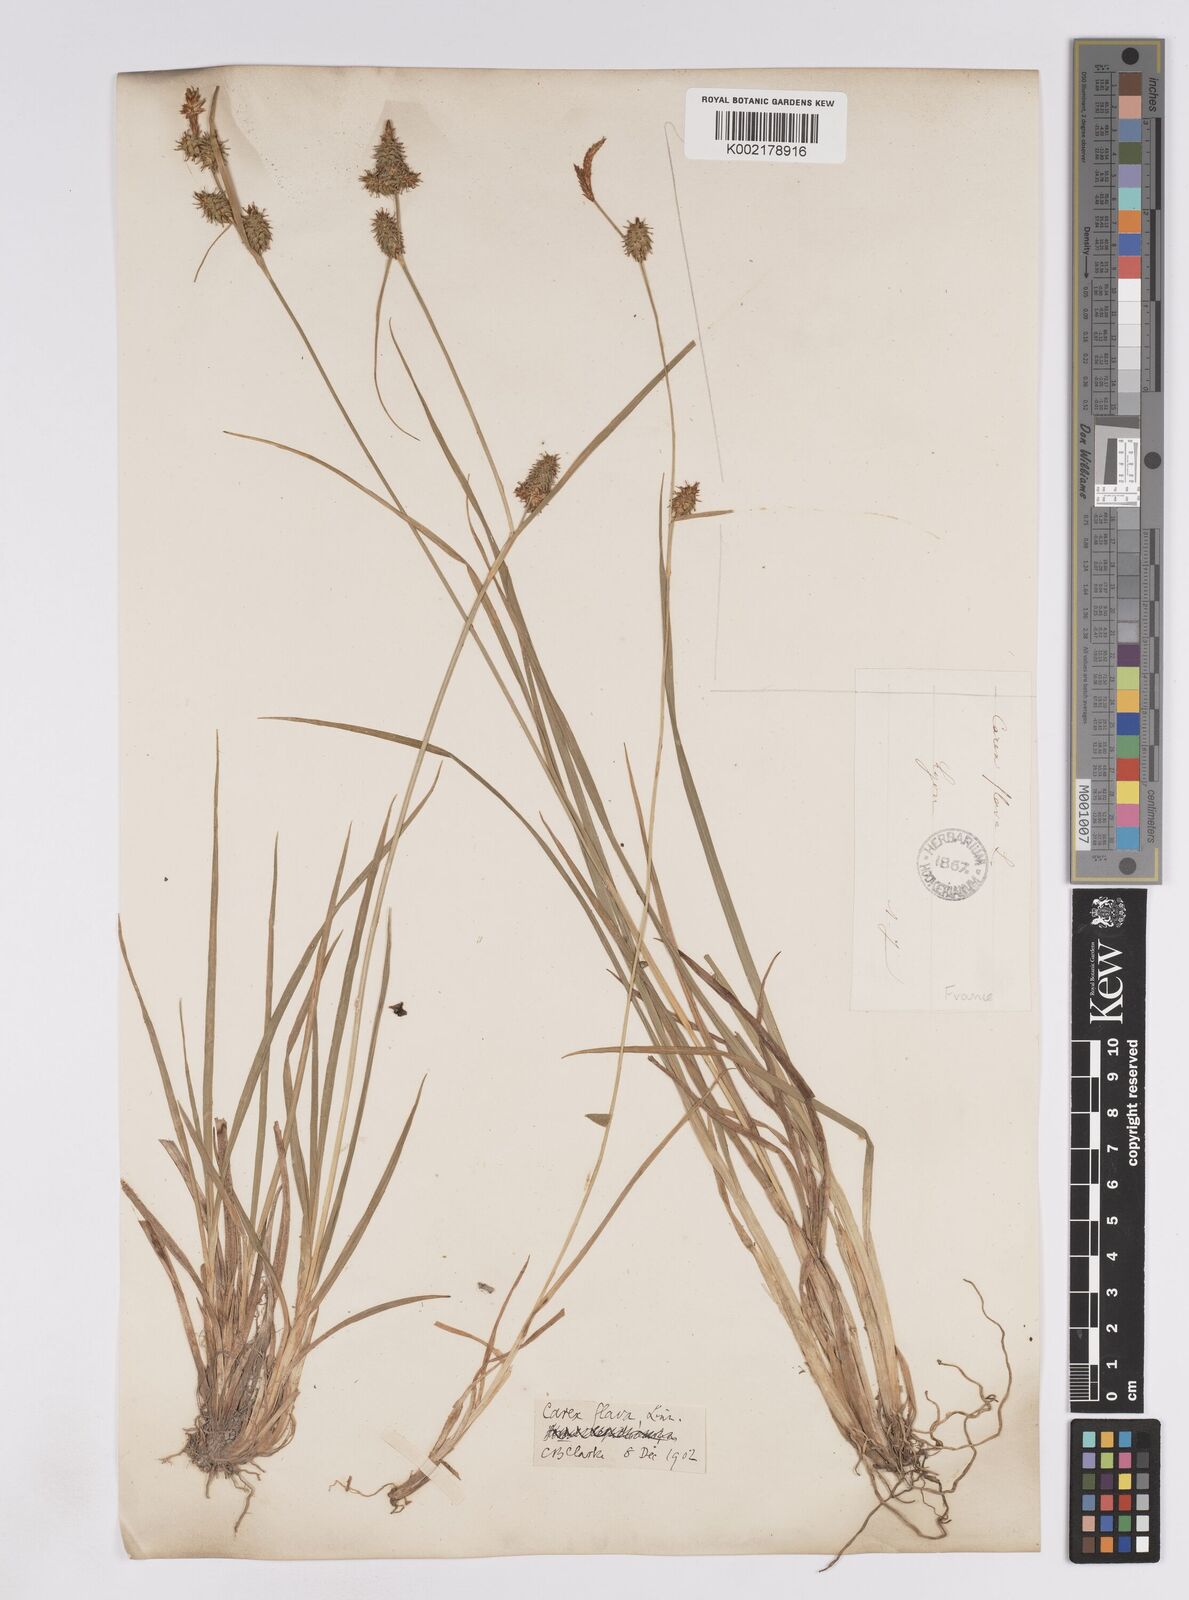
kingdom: Plantae
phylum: Tracheophyta
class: Liliopsida
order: Poales
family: Cyperaceae
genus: Carex
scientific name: Carex lepidocarpa
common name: Long-stalked yellow-sedge
